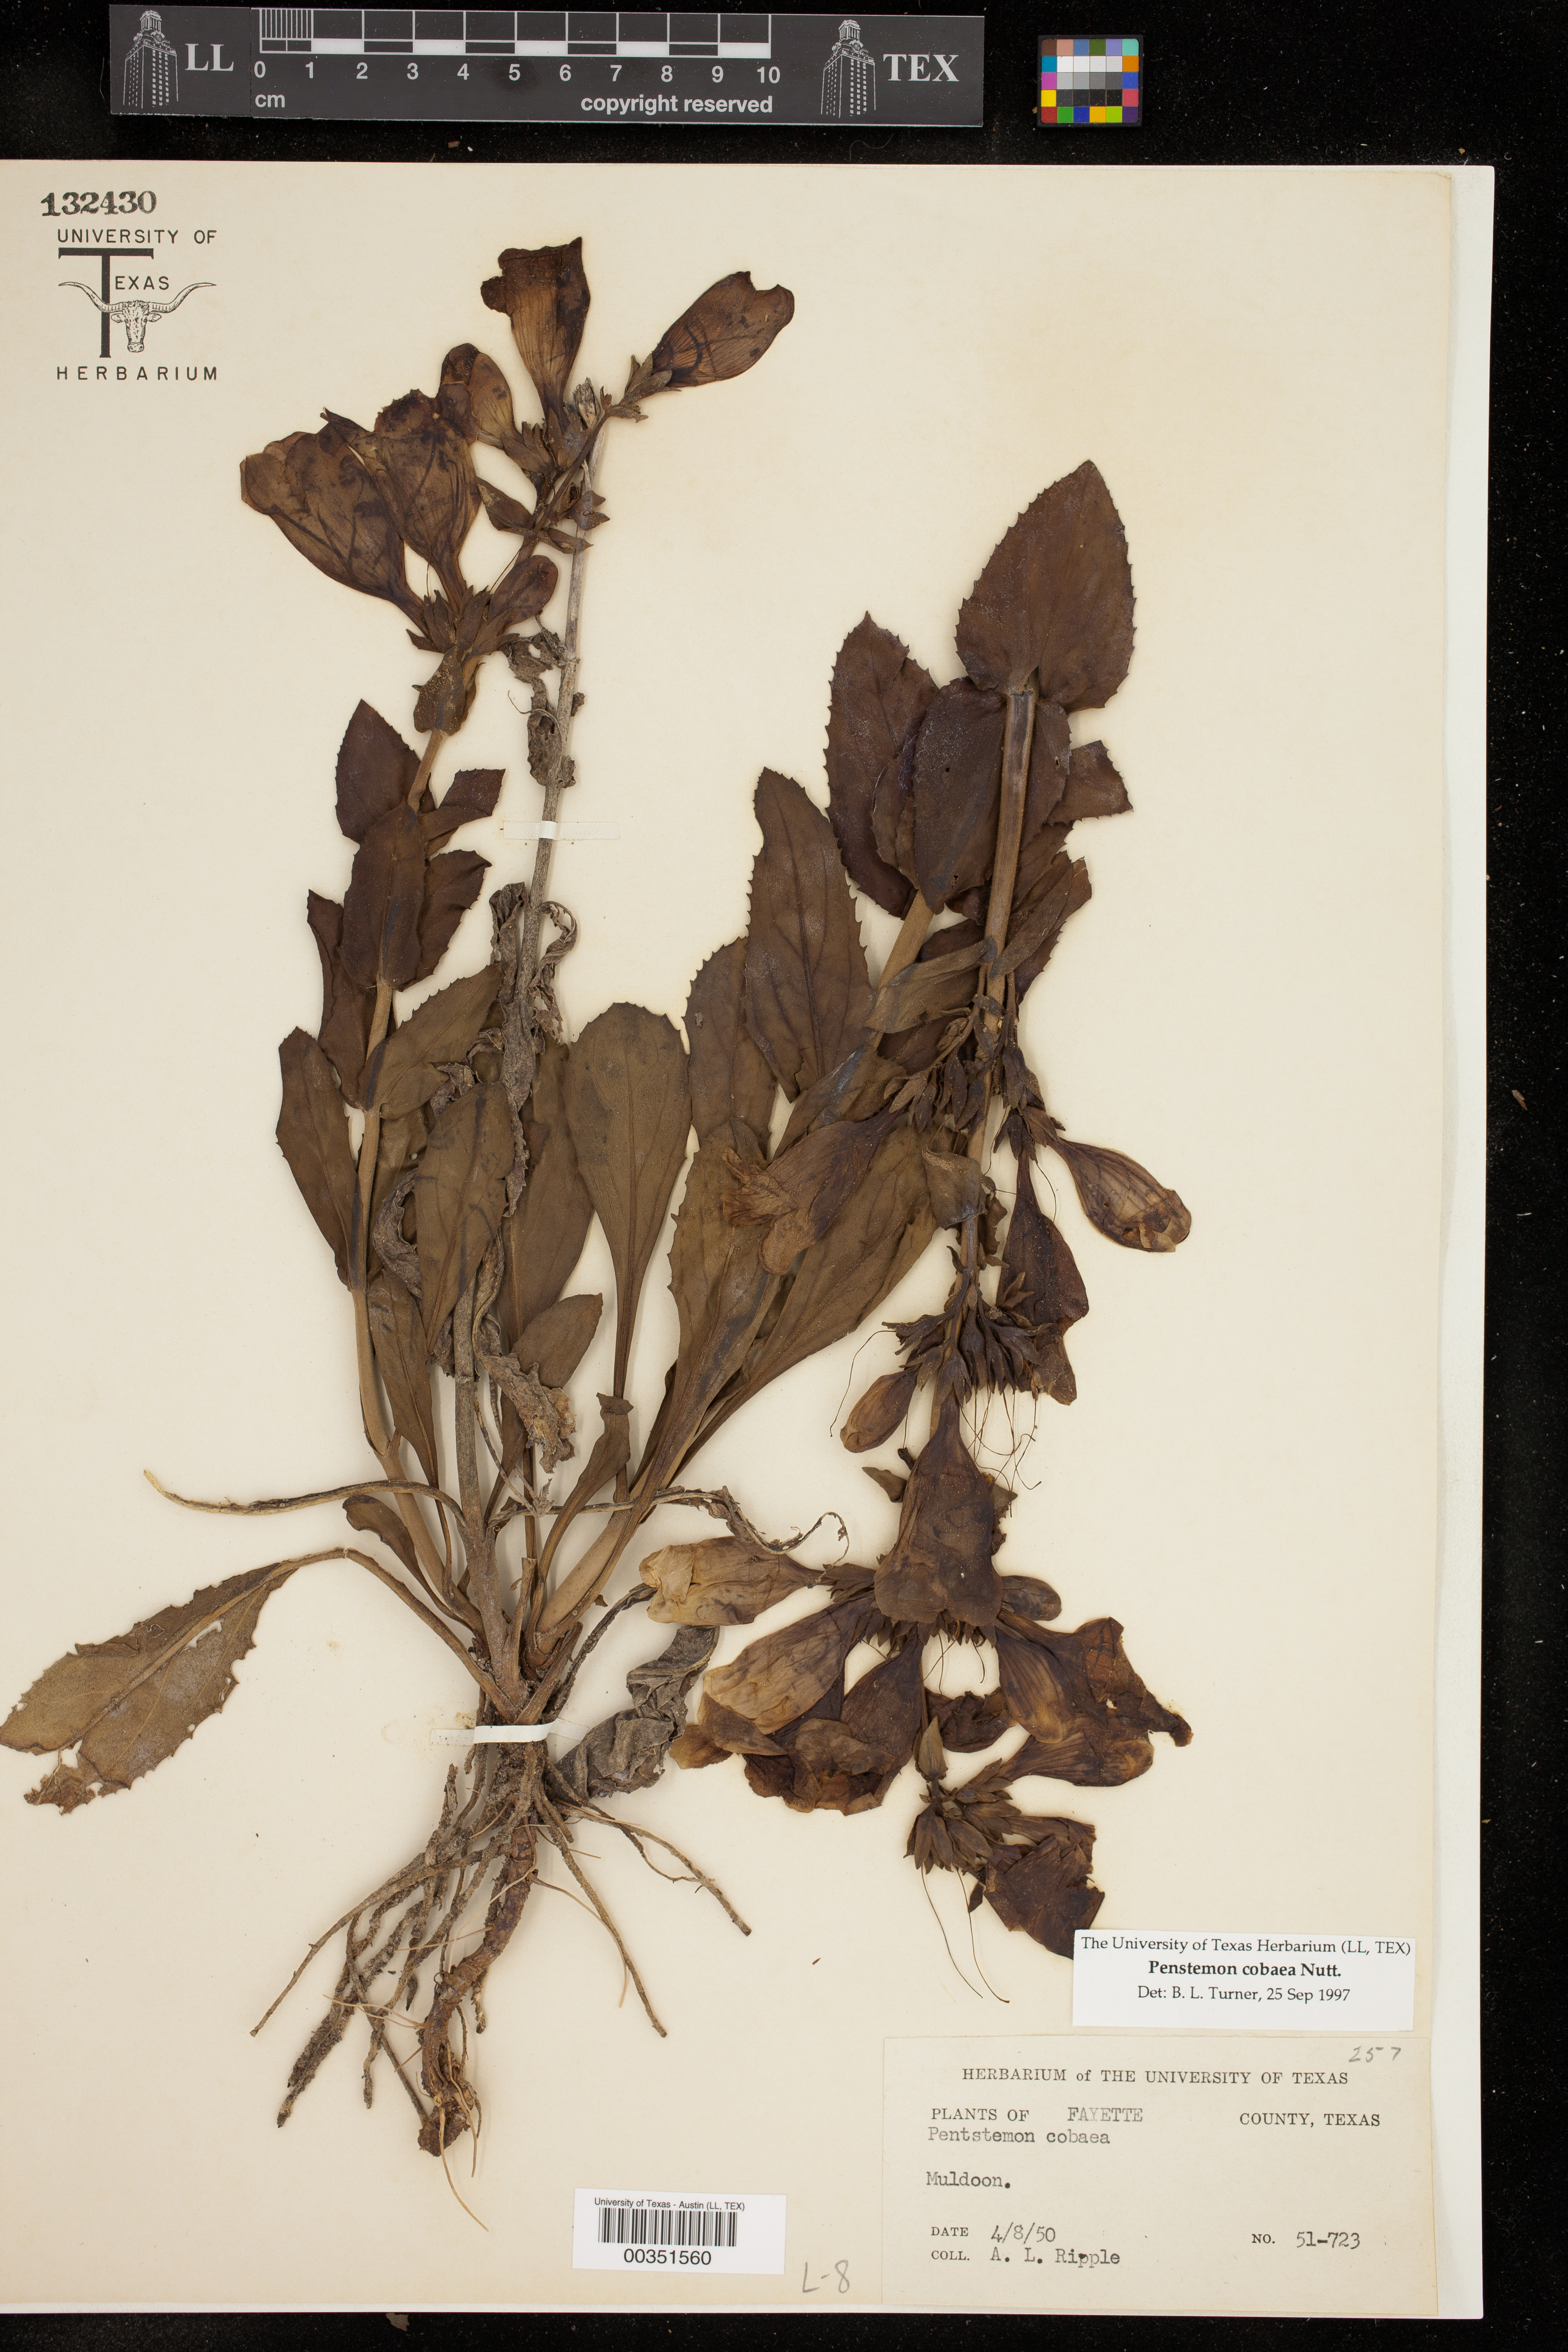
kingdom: Plantae
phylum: Tracheophyta
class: Magnoliopsida
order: Lamiales
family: Plantaginaceae
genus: Penstemon
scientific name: Penstemon cobaea
